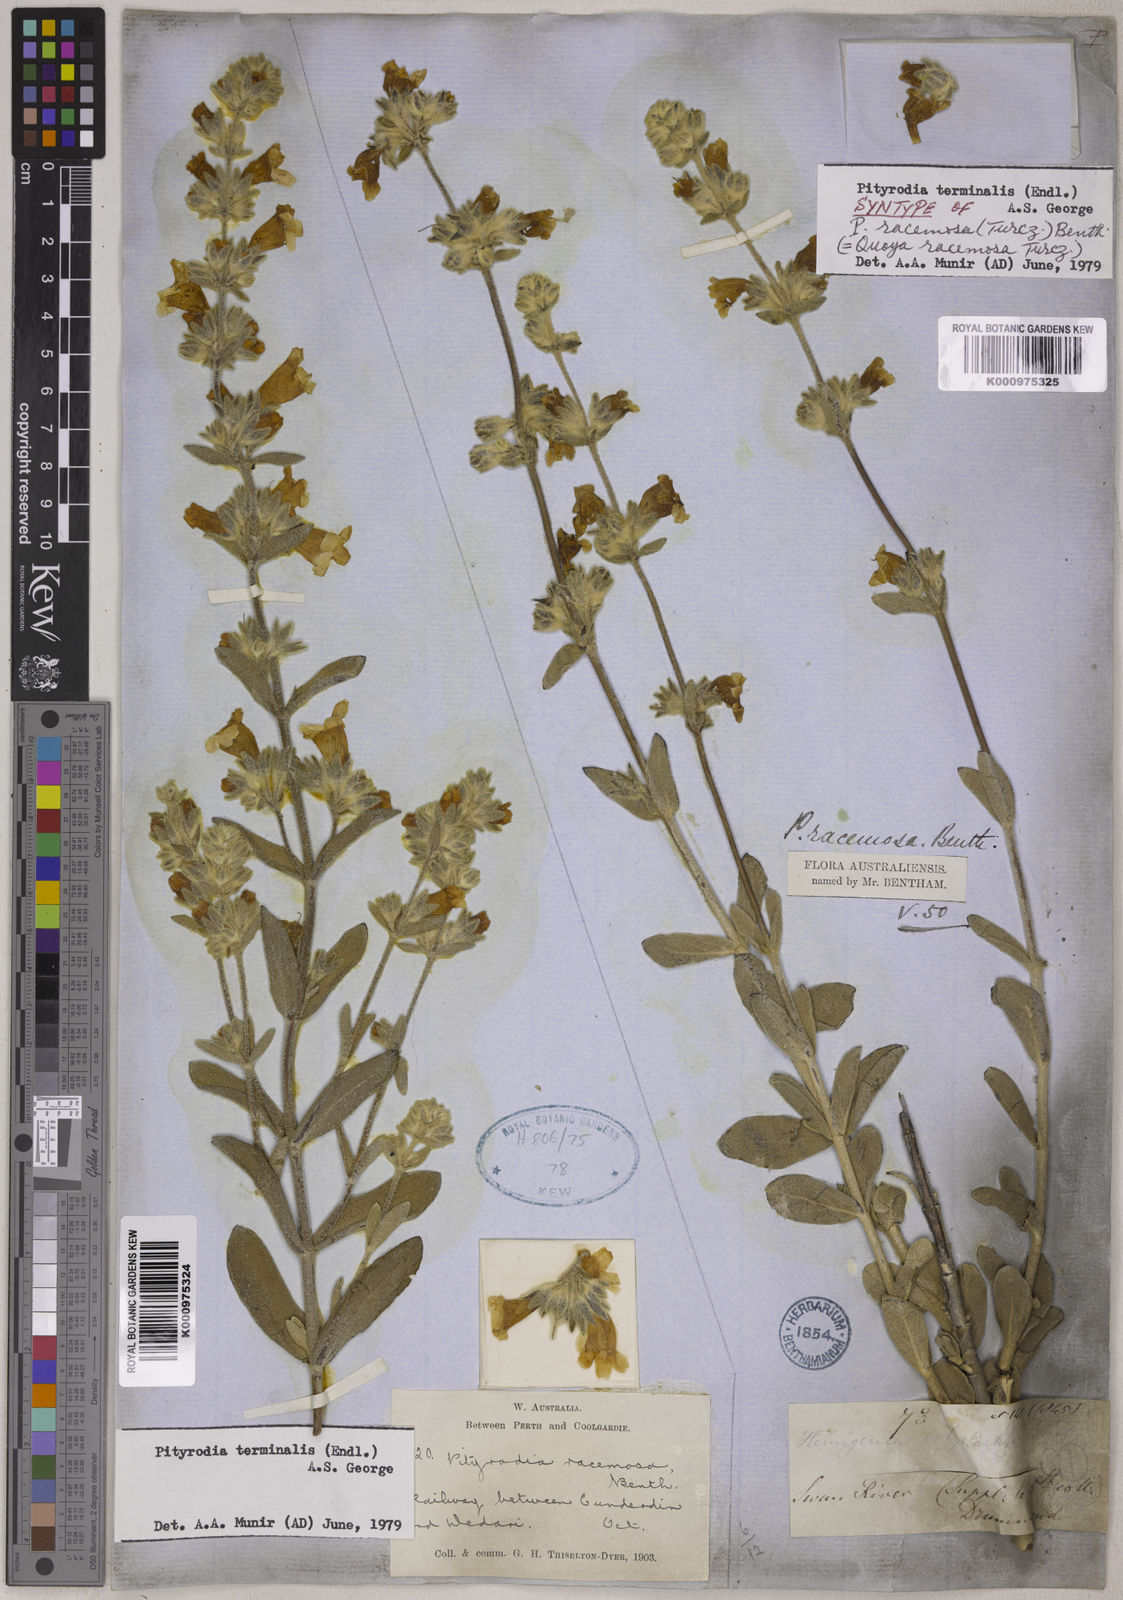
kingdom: Plantae
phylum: Tracheophyta
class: Magnoliopsida
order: Lamiales
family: Lamiaceae
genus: Dasymalla
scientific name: Dasymalla terminalis
